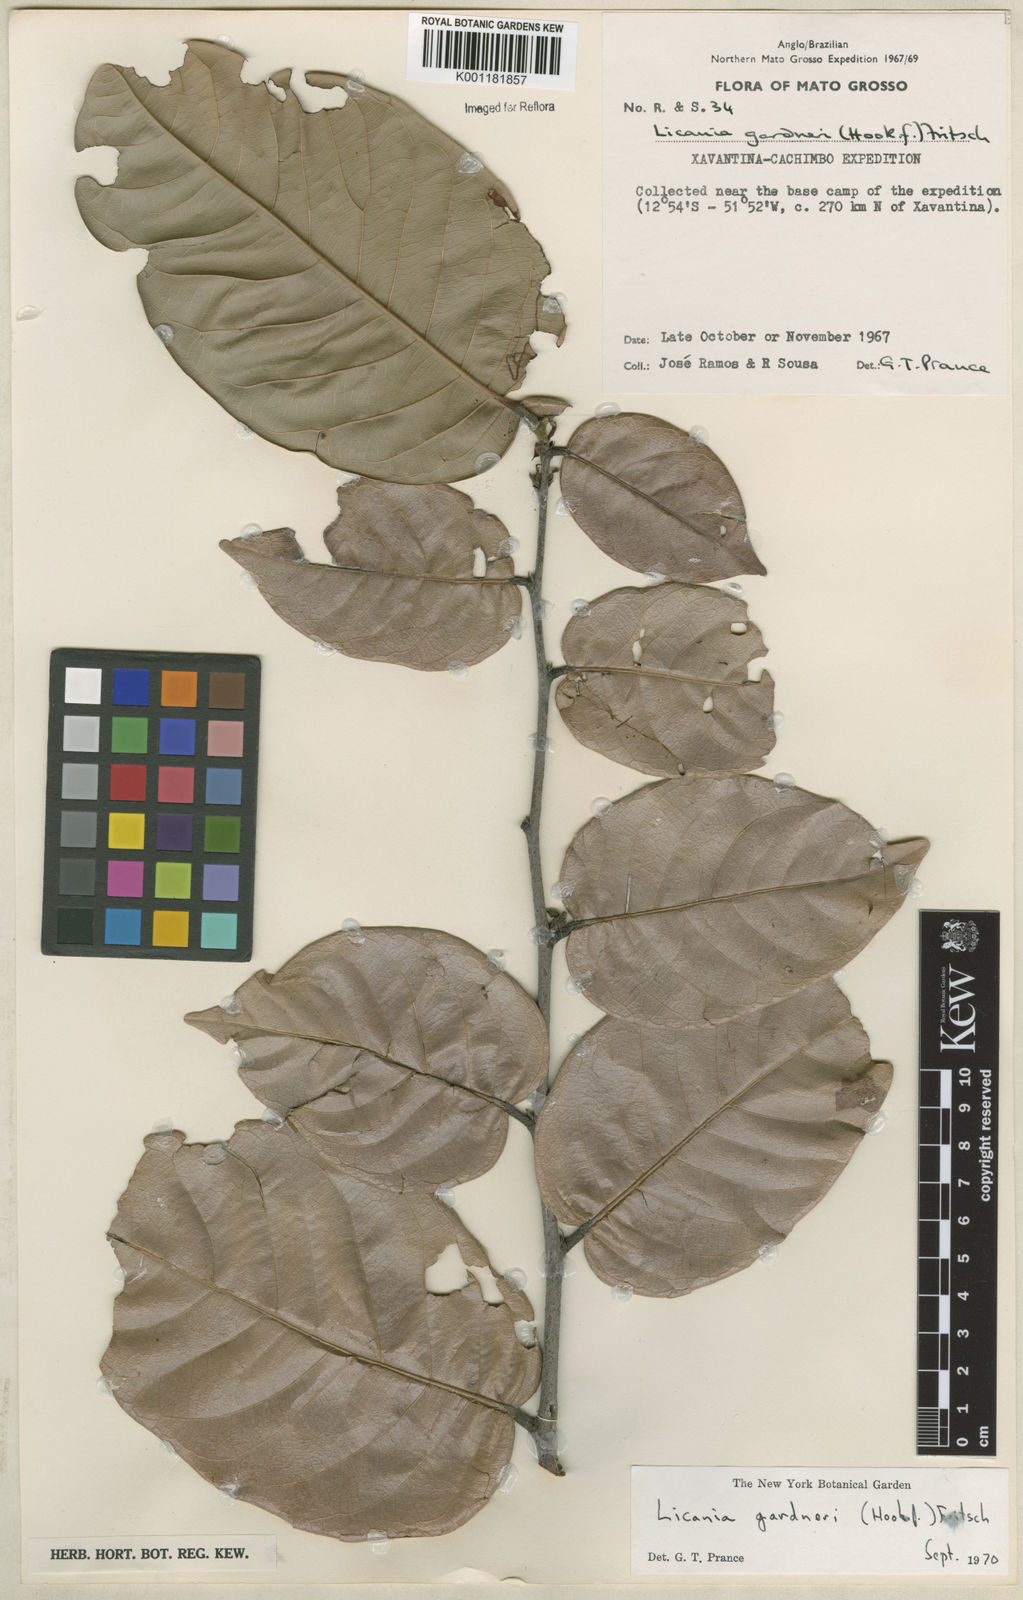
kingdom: Plantae
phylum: Tracheophyta
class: Magnoliopsida
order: Malpighiales
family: Chrysobalanaceae
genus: Leptobalanus
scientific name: Leptobalanus gardneri
